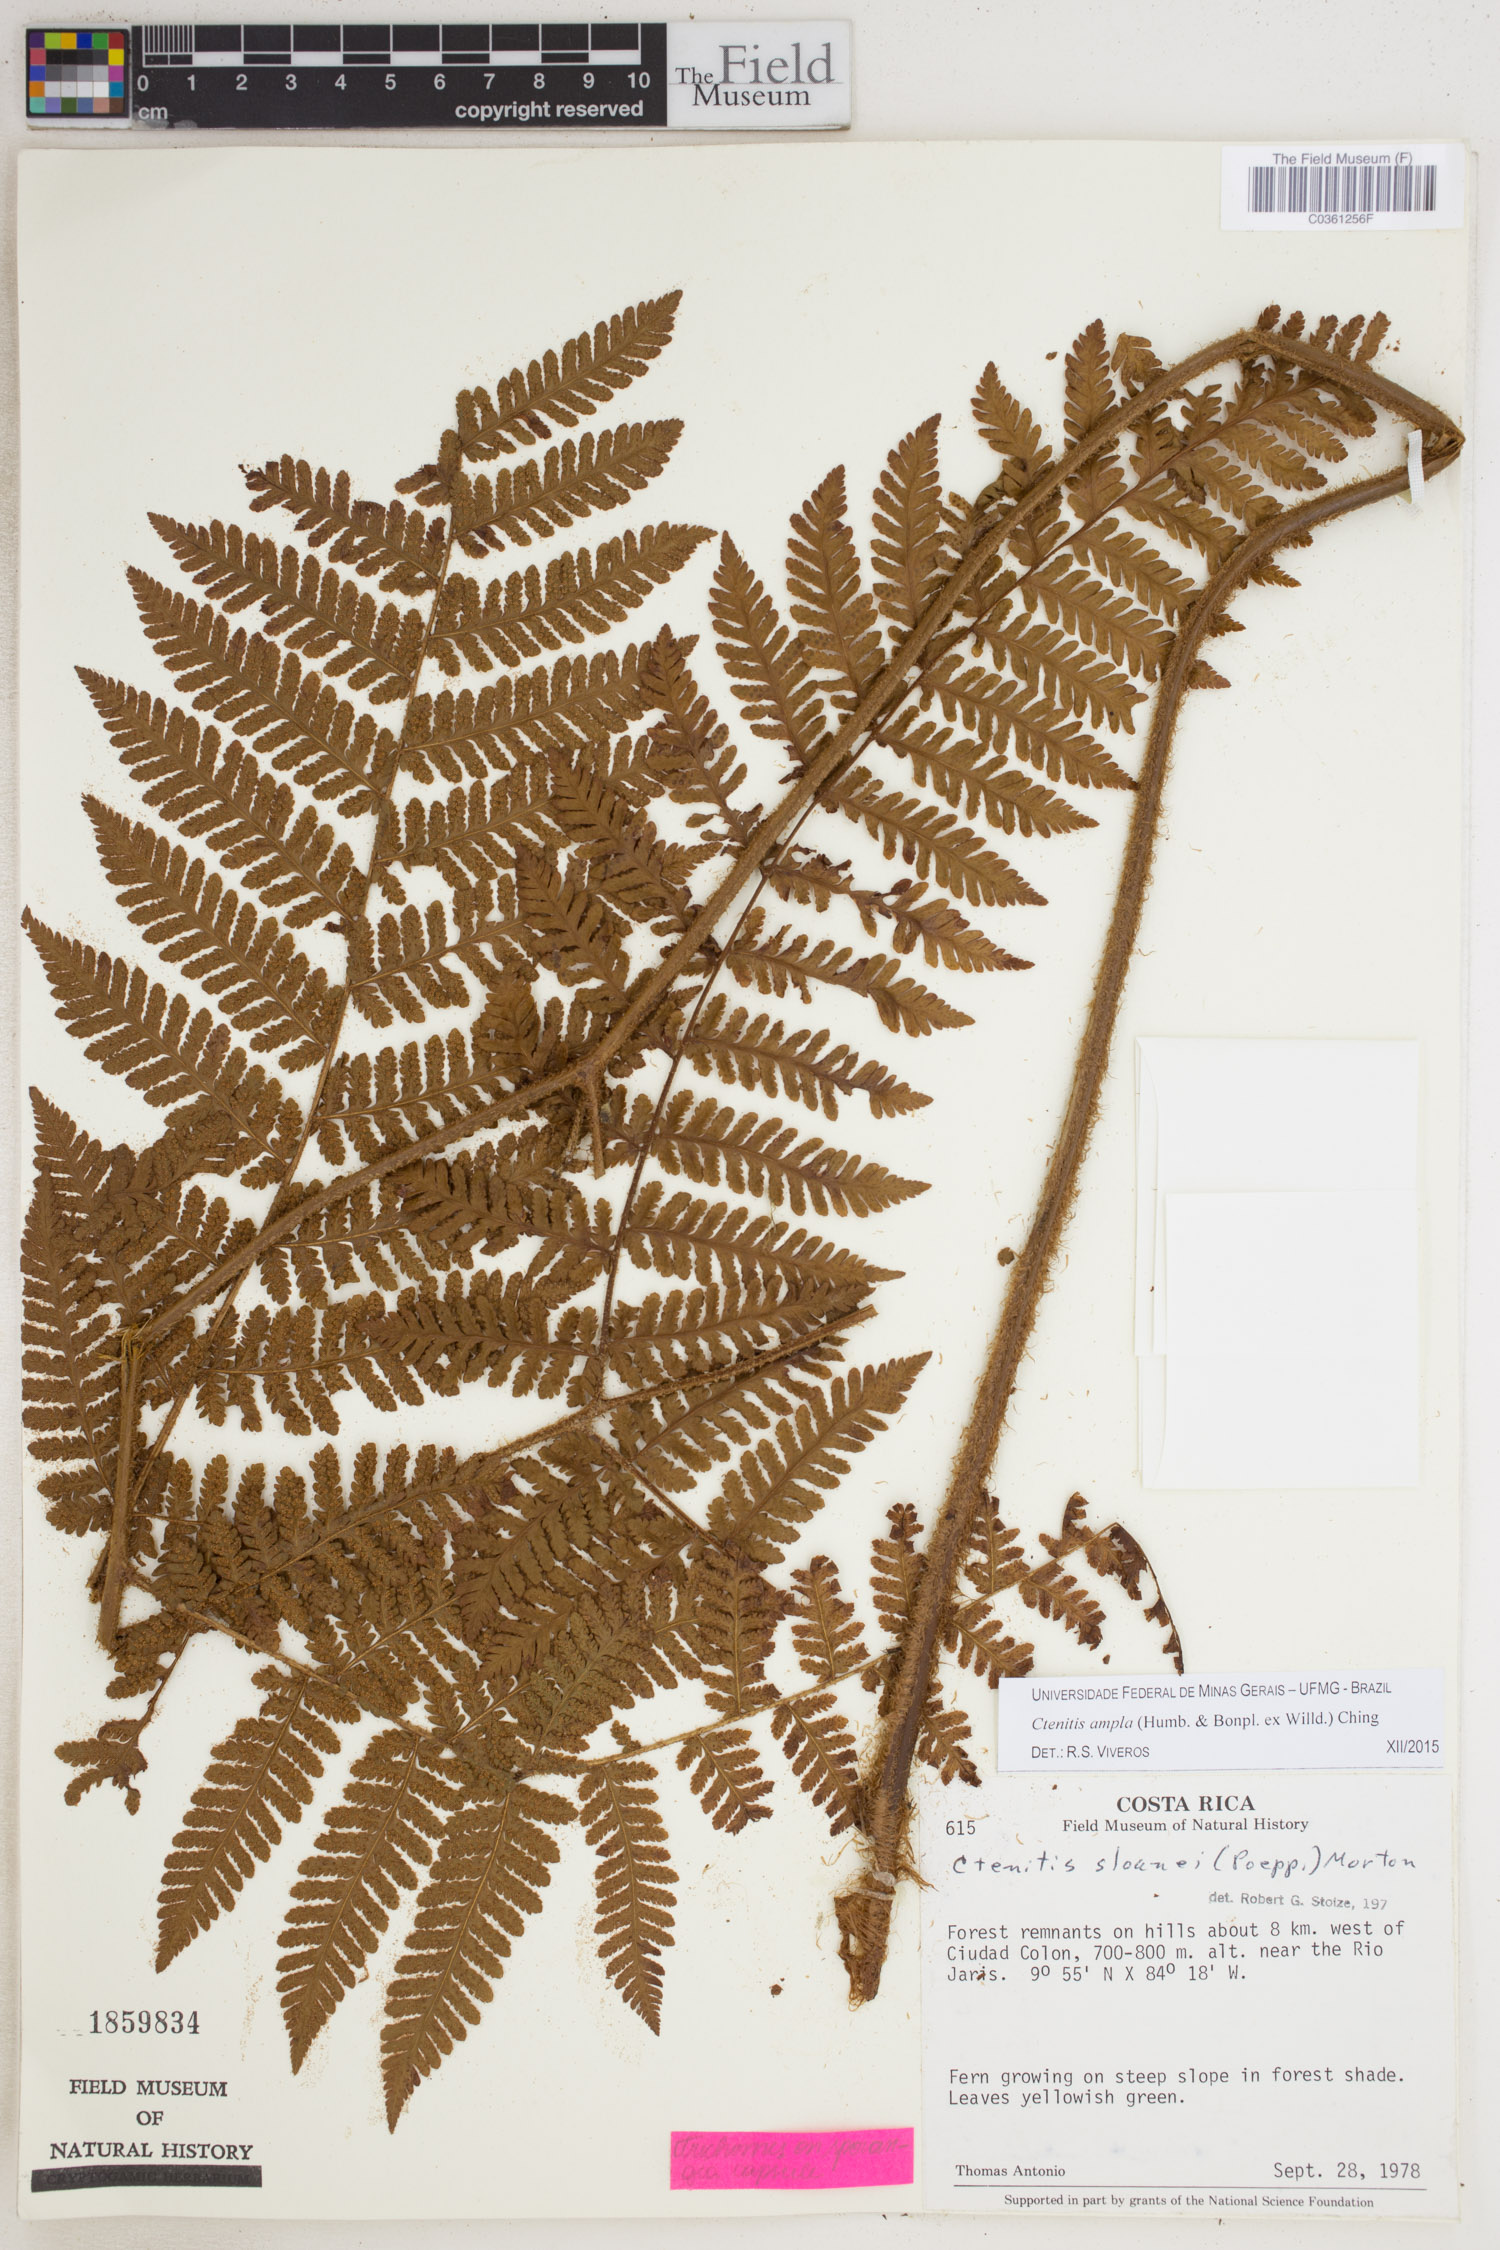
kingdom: Plantae
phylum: Tracheophyta
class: Polypodiopsida
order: Polypodiales
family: Dryopteridaceae
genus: Ctenitis
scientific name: Ctenitis sloanei
